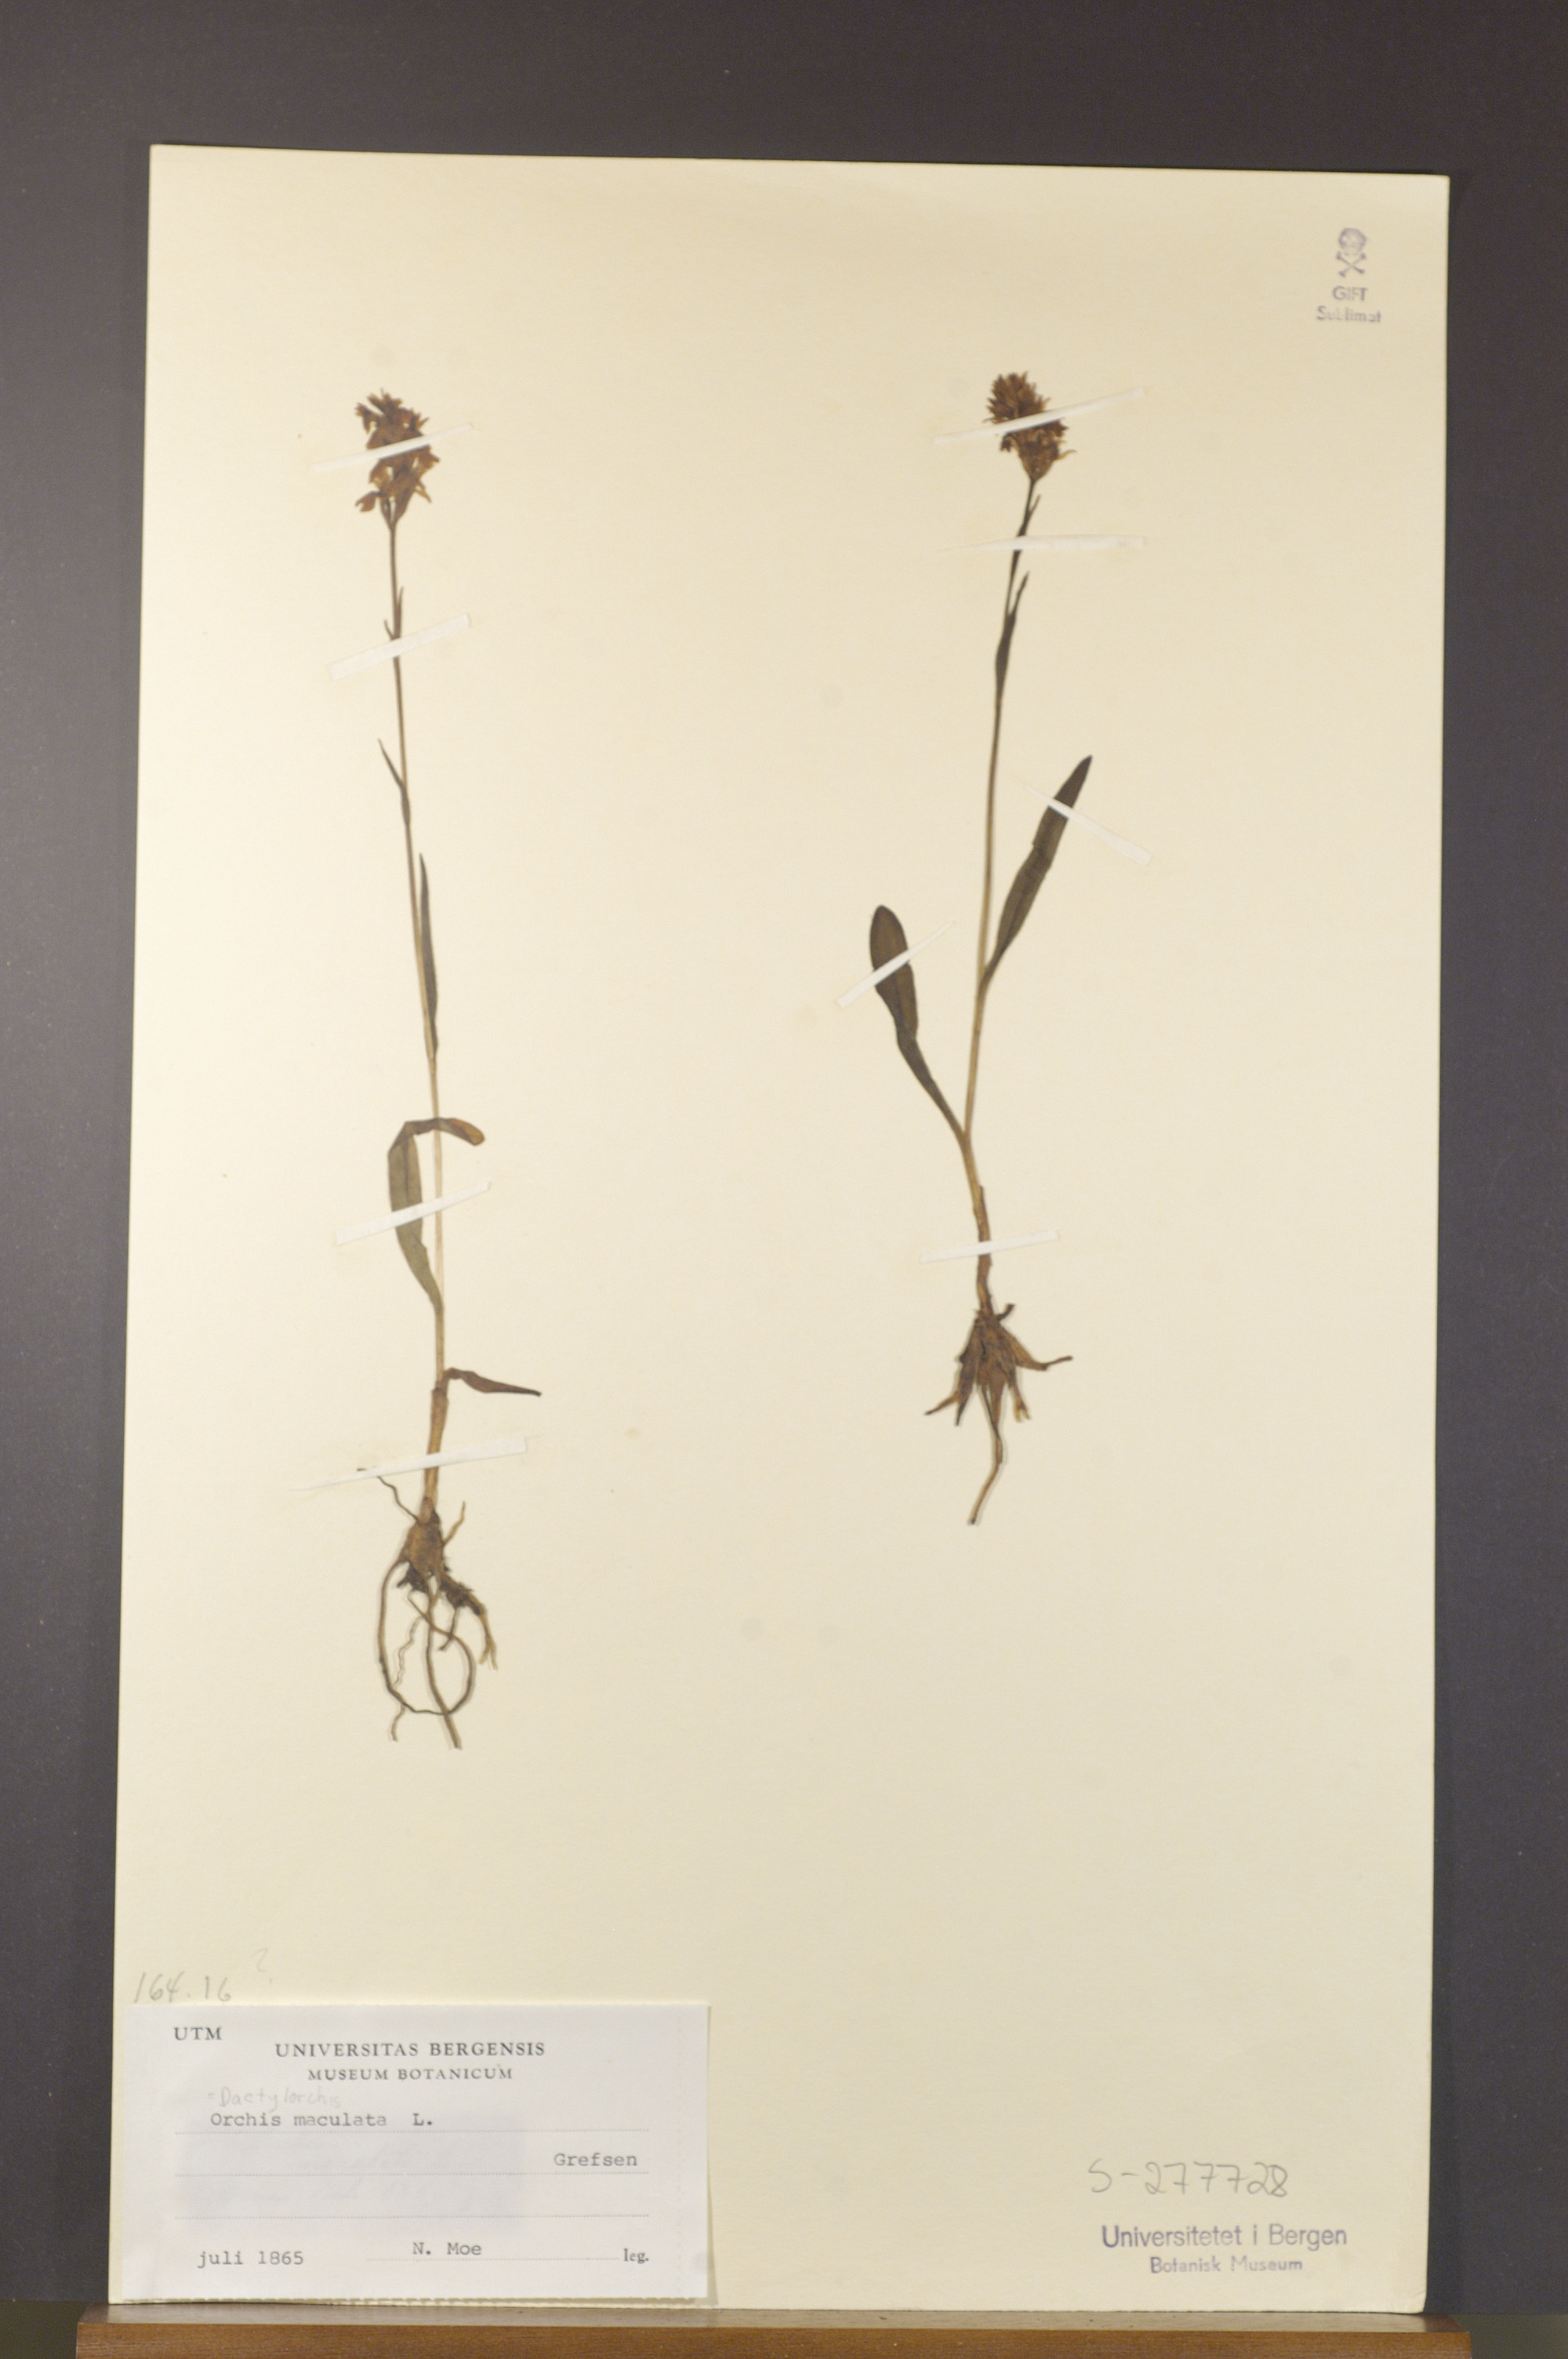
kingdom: Plantae
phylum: Tracheophyta
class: Liliopsida
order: Asparagales
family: Orchidaceae
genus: Dactylorhiza
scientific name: Dactylorhiza maculata
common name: Heath spotted-orchid
